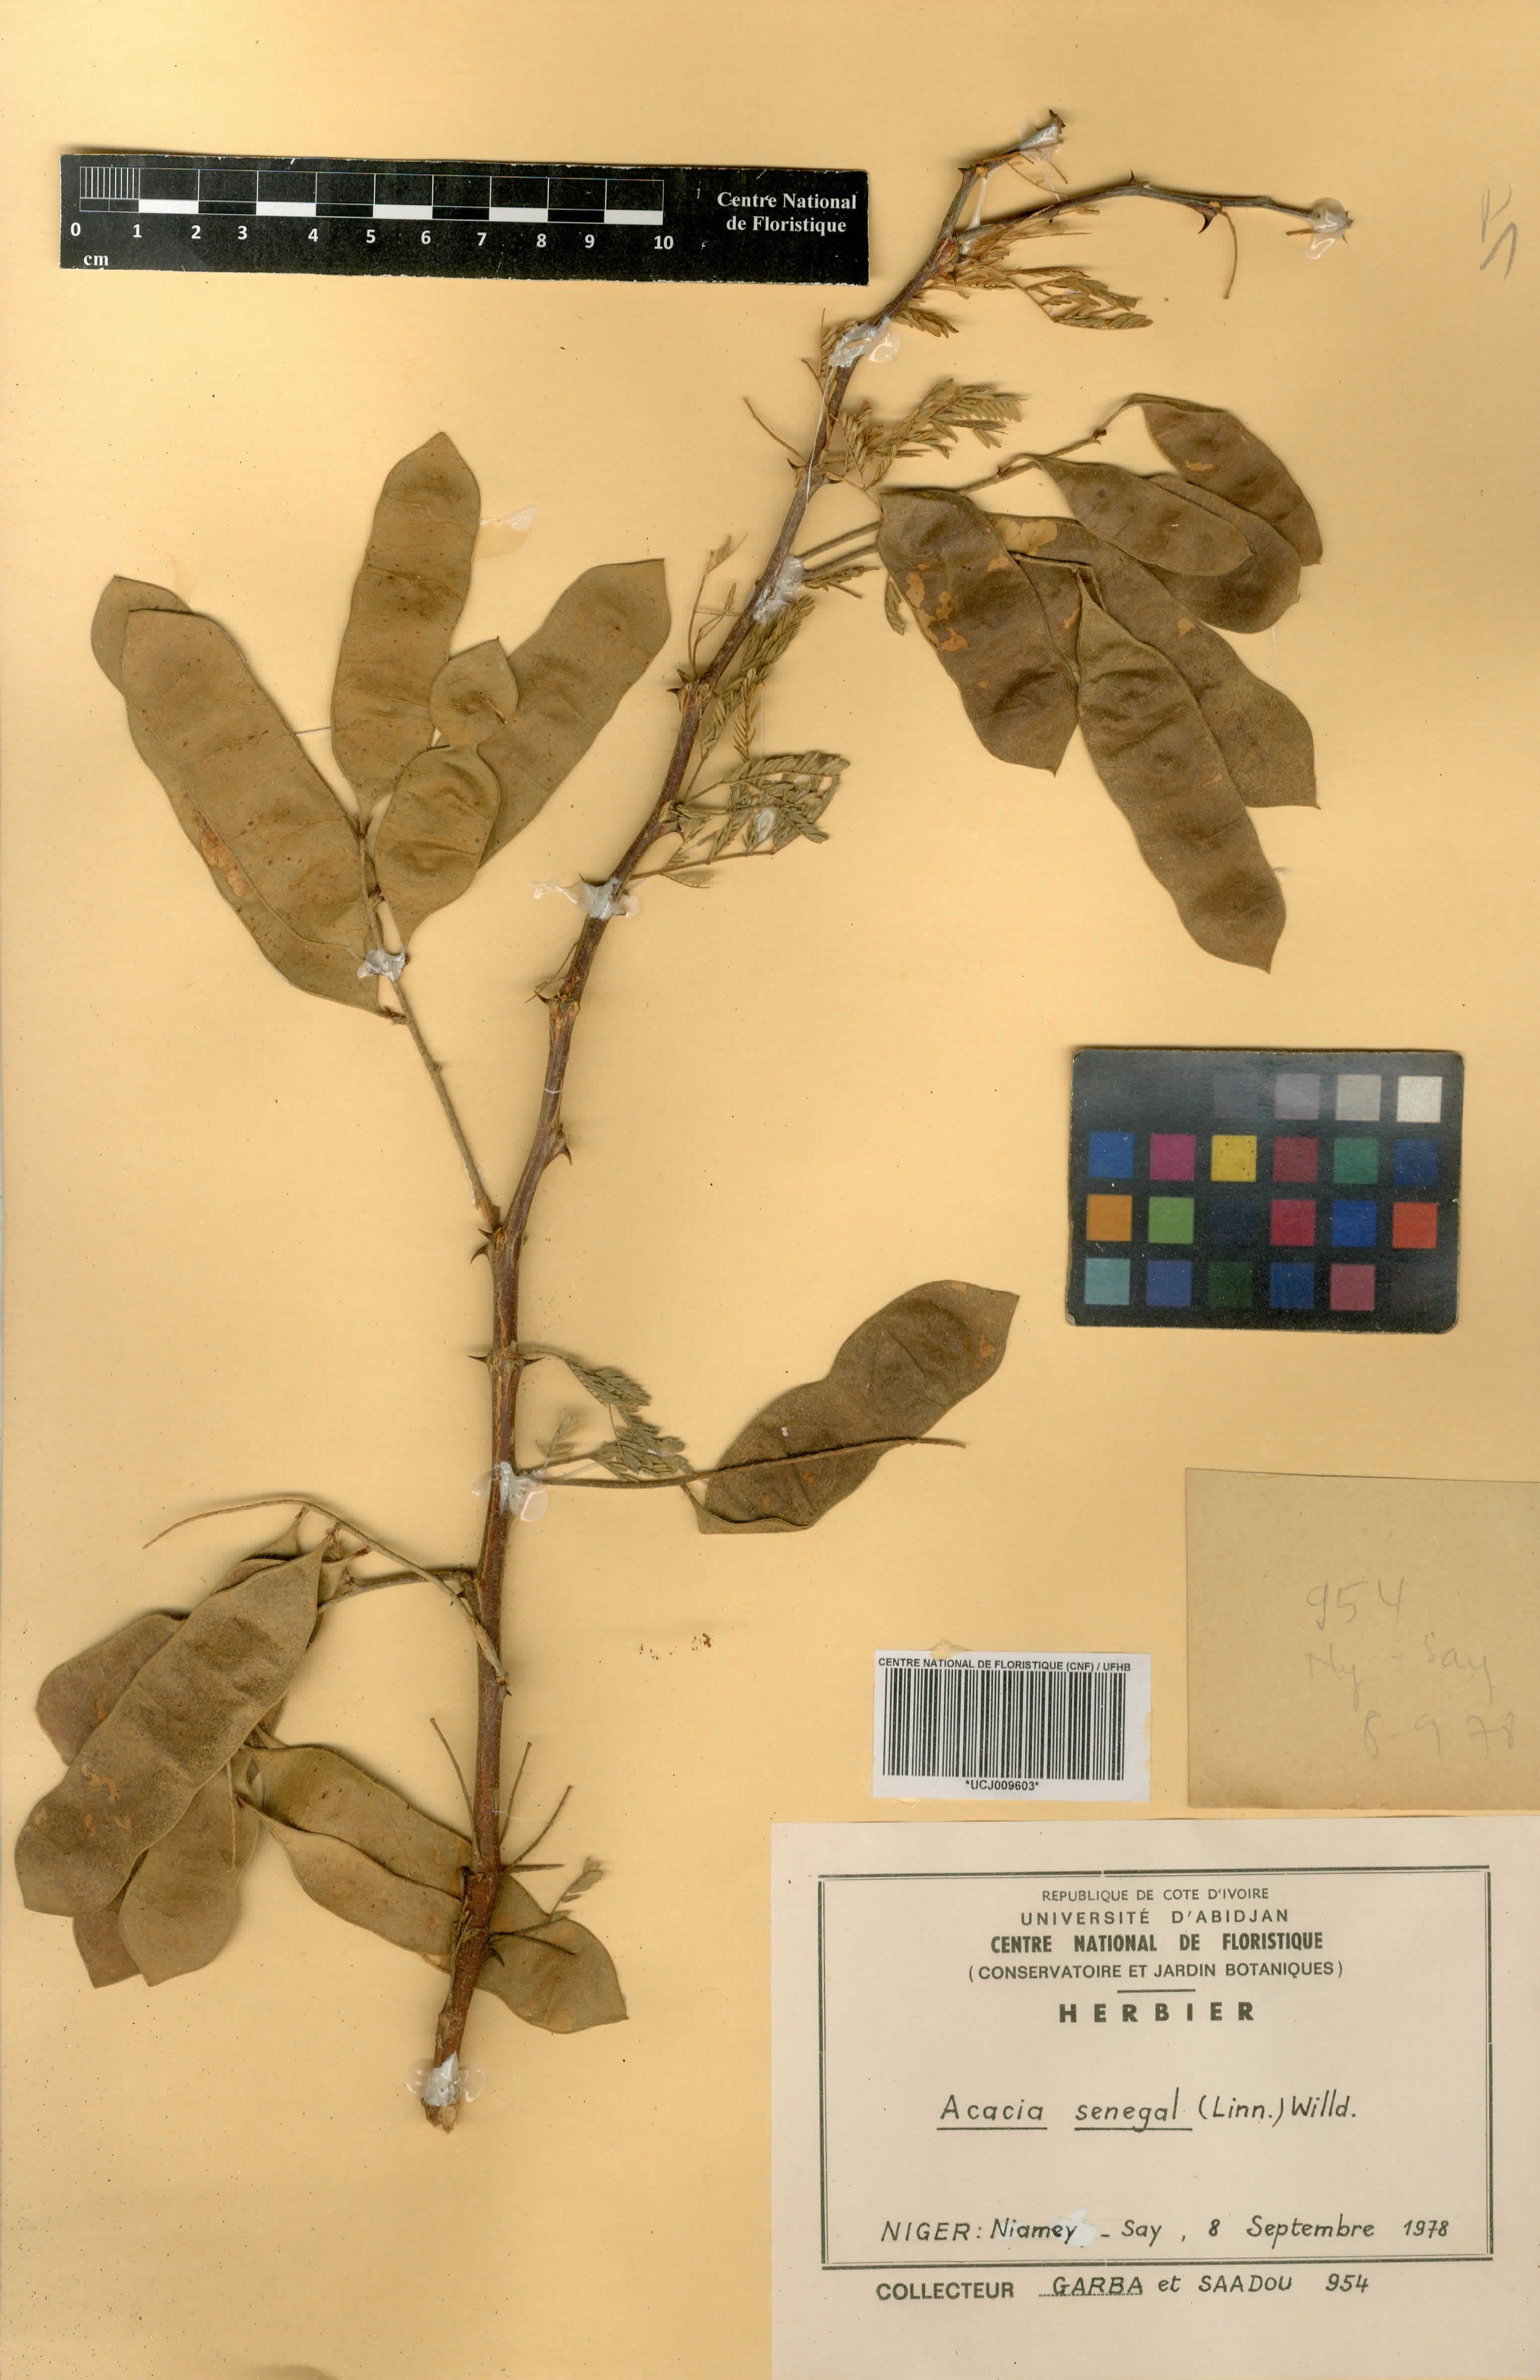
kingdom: Plantae
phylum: Tracheophyta
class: Magnoliopsida
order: Fabales
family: Fabaceae
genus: Senegalia
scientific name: Senegalia senegal
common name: Senegal-gum
